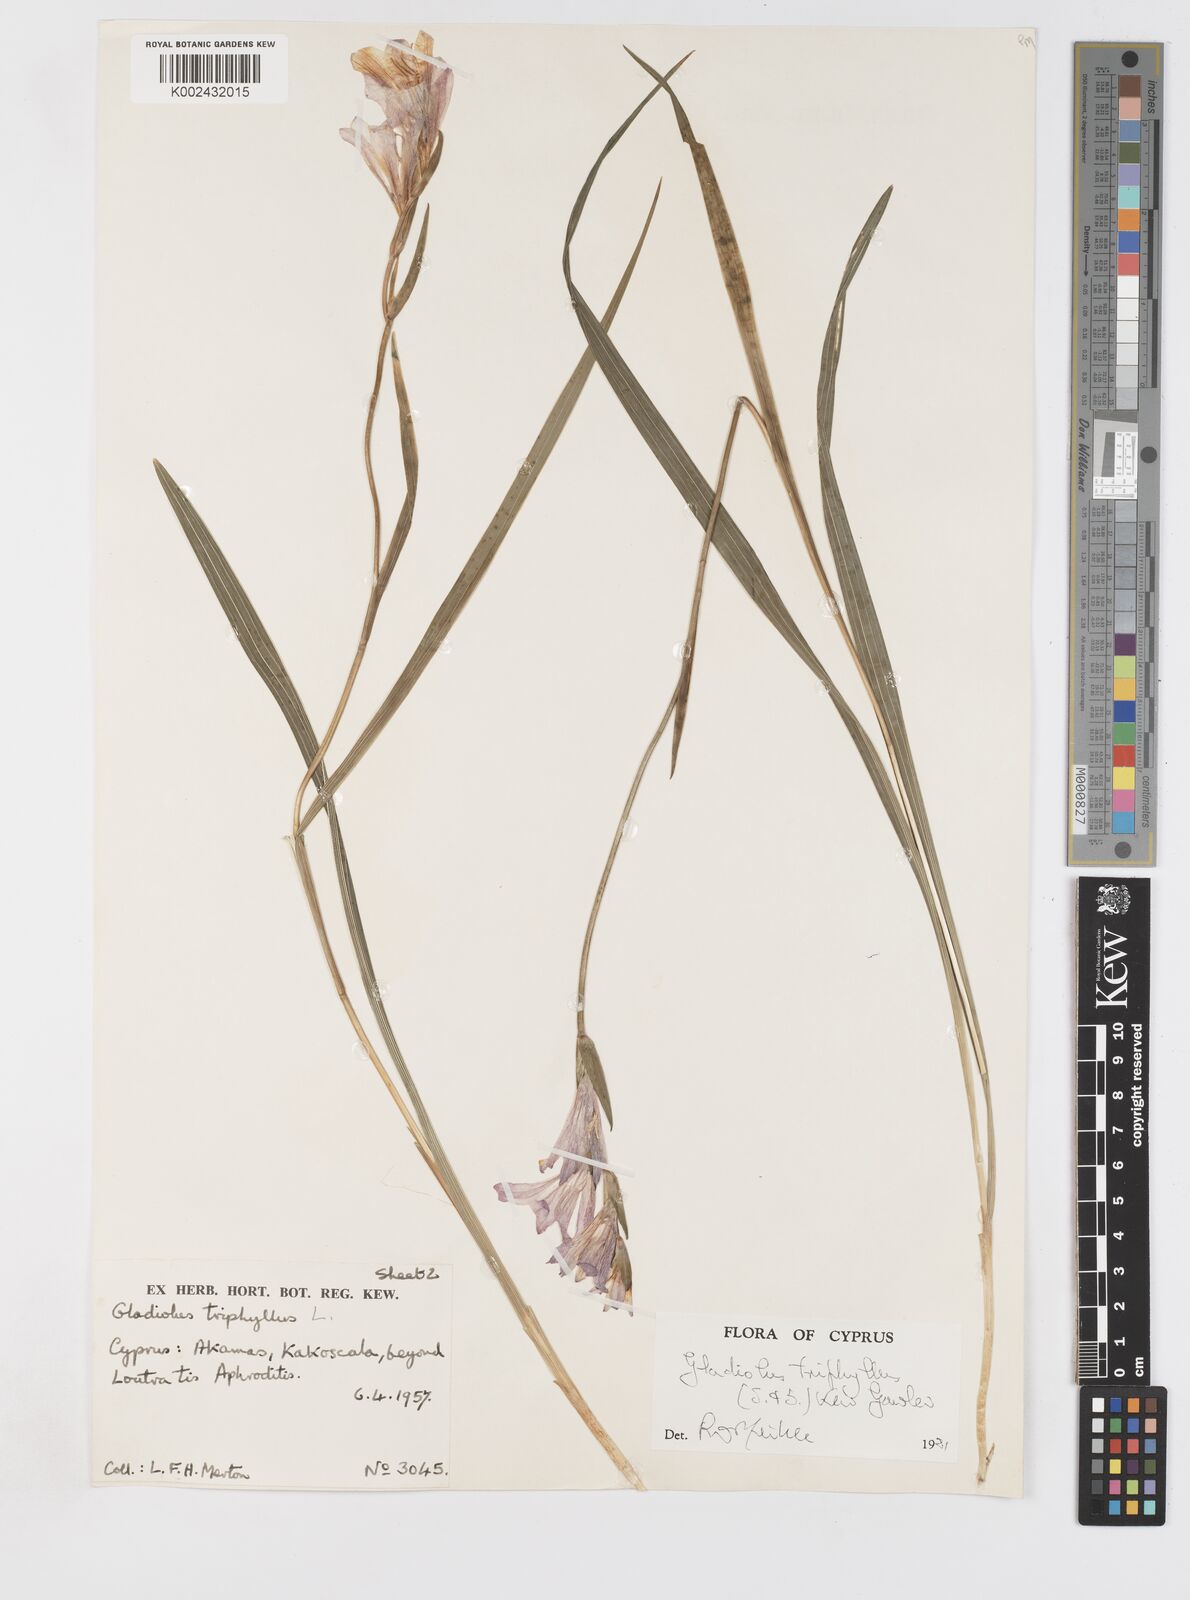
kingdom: Plantae
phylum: Tracheophyta
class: Liliopsida
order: Asparagales
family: Iridaceae
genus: Gladiolus
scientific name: Gladiolus triphyllus
